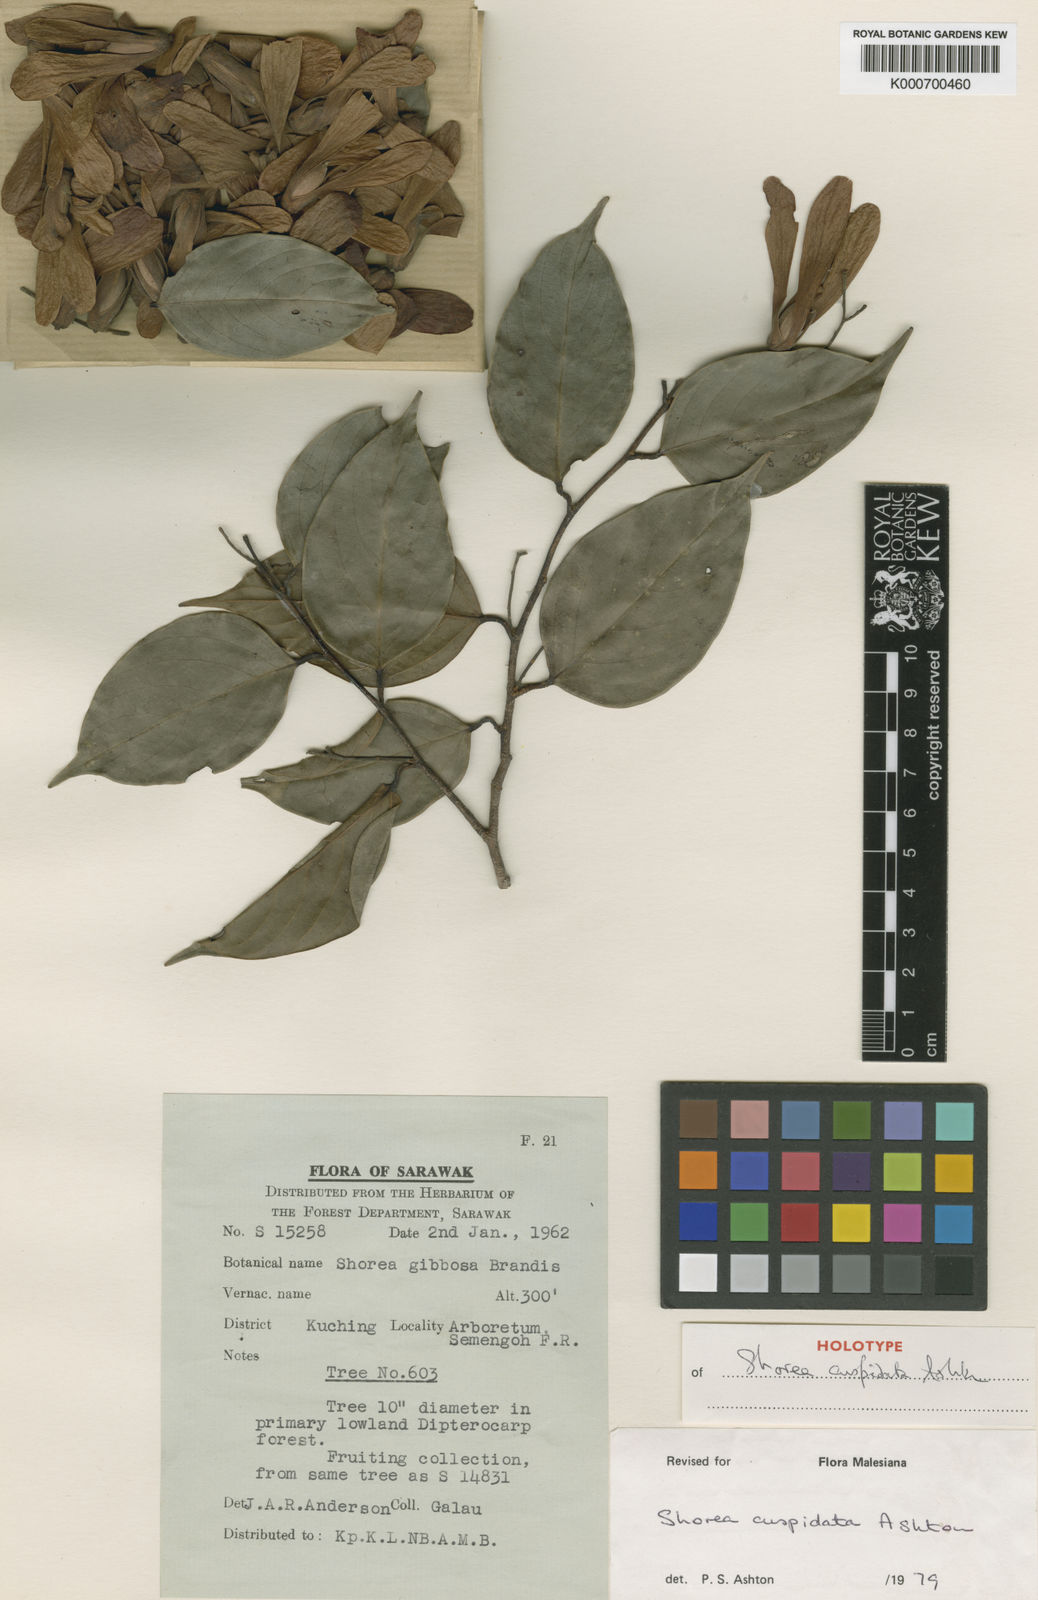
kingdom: Plantae
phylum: Tracheophyta
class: Magnoliopsida
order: Malvales
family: Dipterocarpaceae
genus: Shorea
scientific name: Shorea cuspidata
